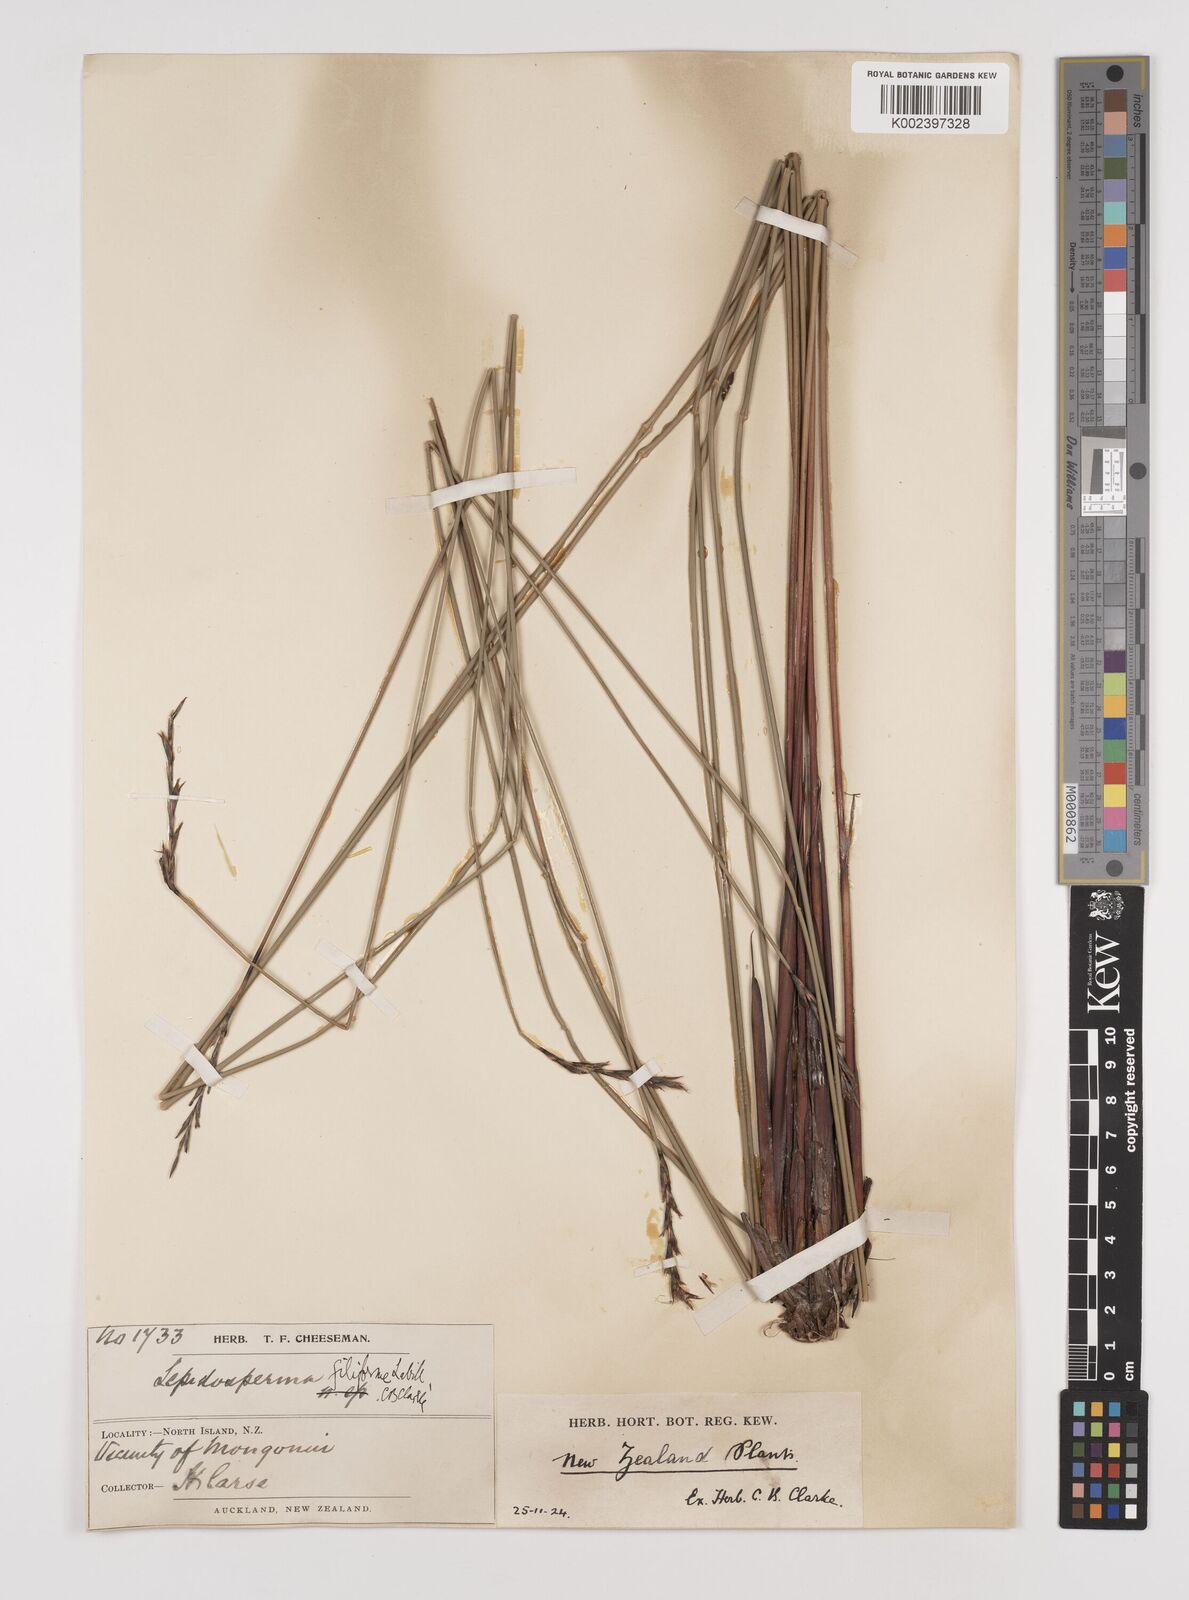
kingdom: Plantae
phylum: Tracheophyta
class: Liliopsida
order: Poales
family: Cyperaceae
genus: Lepidosperma
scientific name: Lepidosperma filiforme
